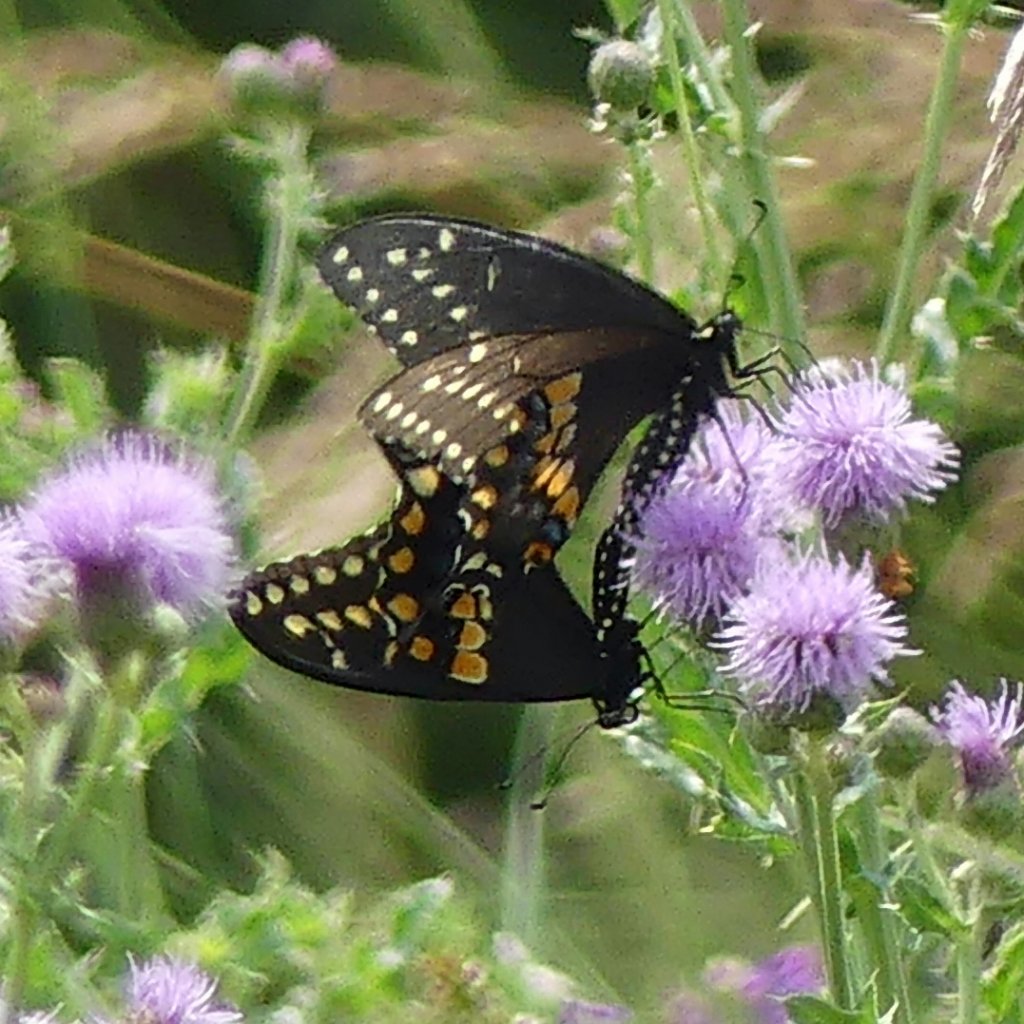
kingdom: Animalia
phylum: Arthropoda
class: Insecta
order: Lepidoptera
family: Papilionidae
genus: Papilio
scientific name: Papilio polyxenes
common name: Black Swallowtail
